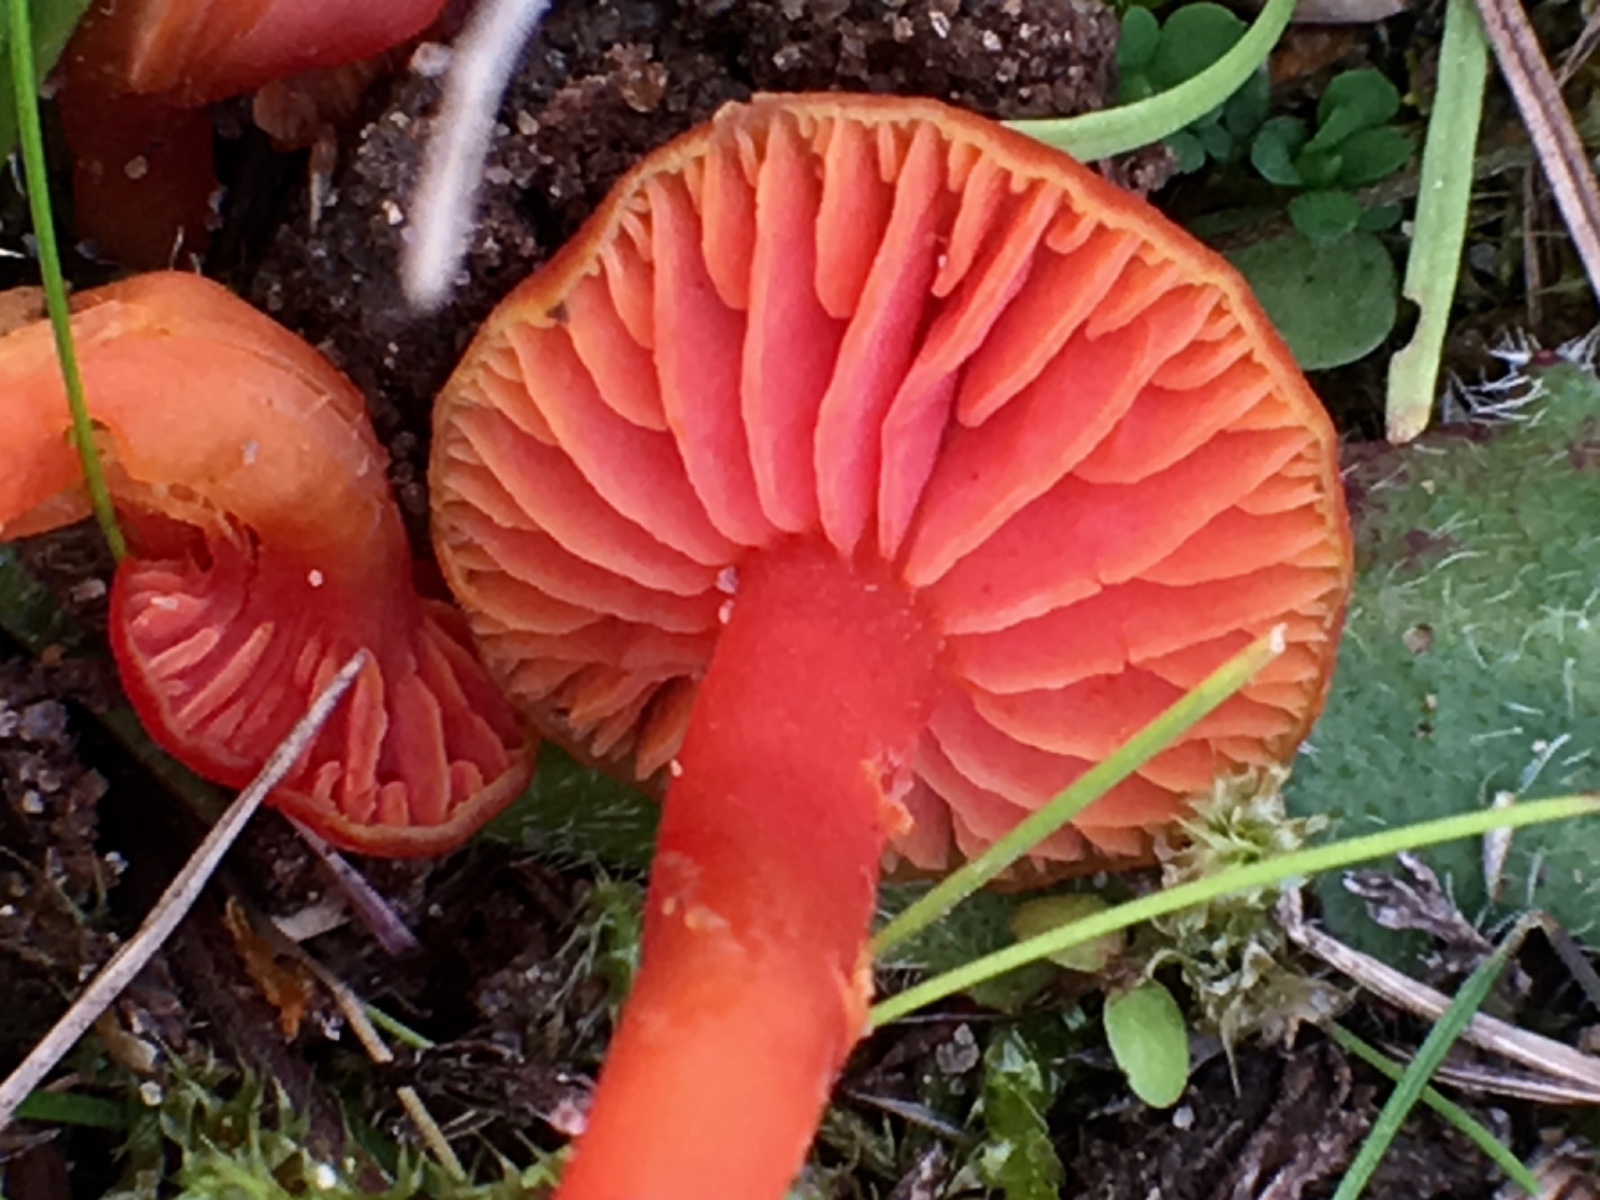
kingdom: Fungi
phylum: Basidiomycota
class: Agaricomycetes
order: Agaricales
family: Hygrophoraceae
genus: Hygrocybe
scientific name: Hygrocybe phaeococcinea
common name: sortdugget vokshat
